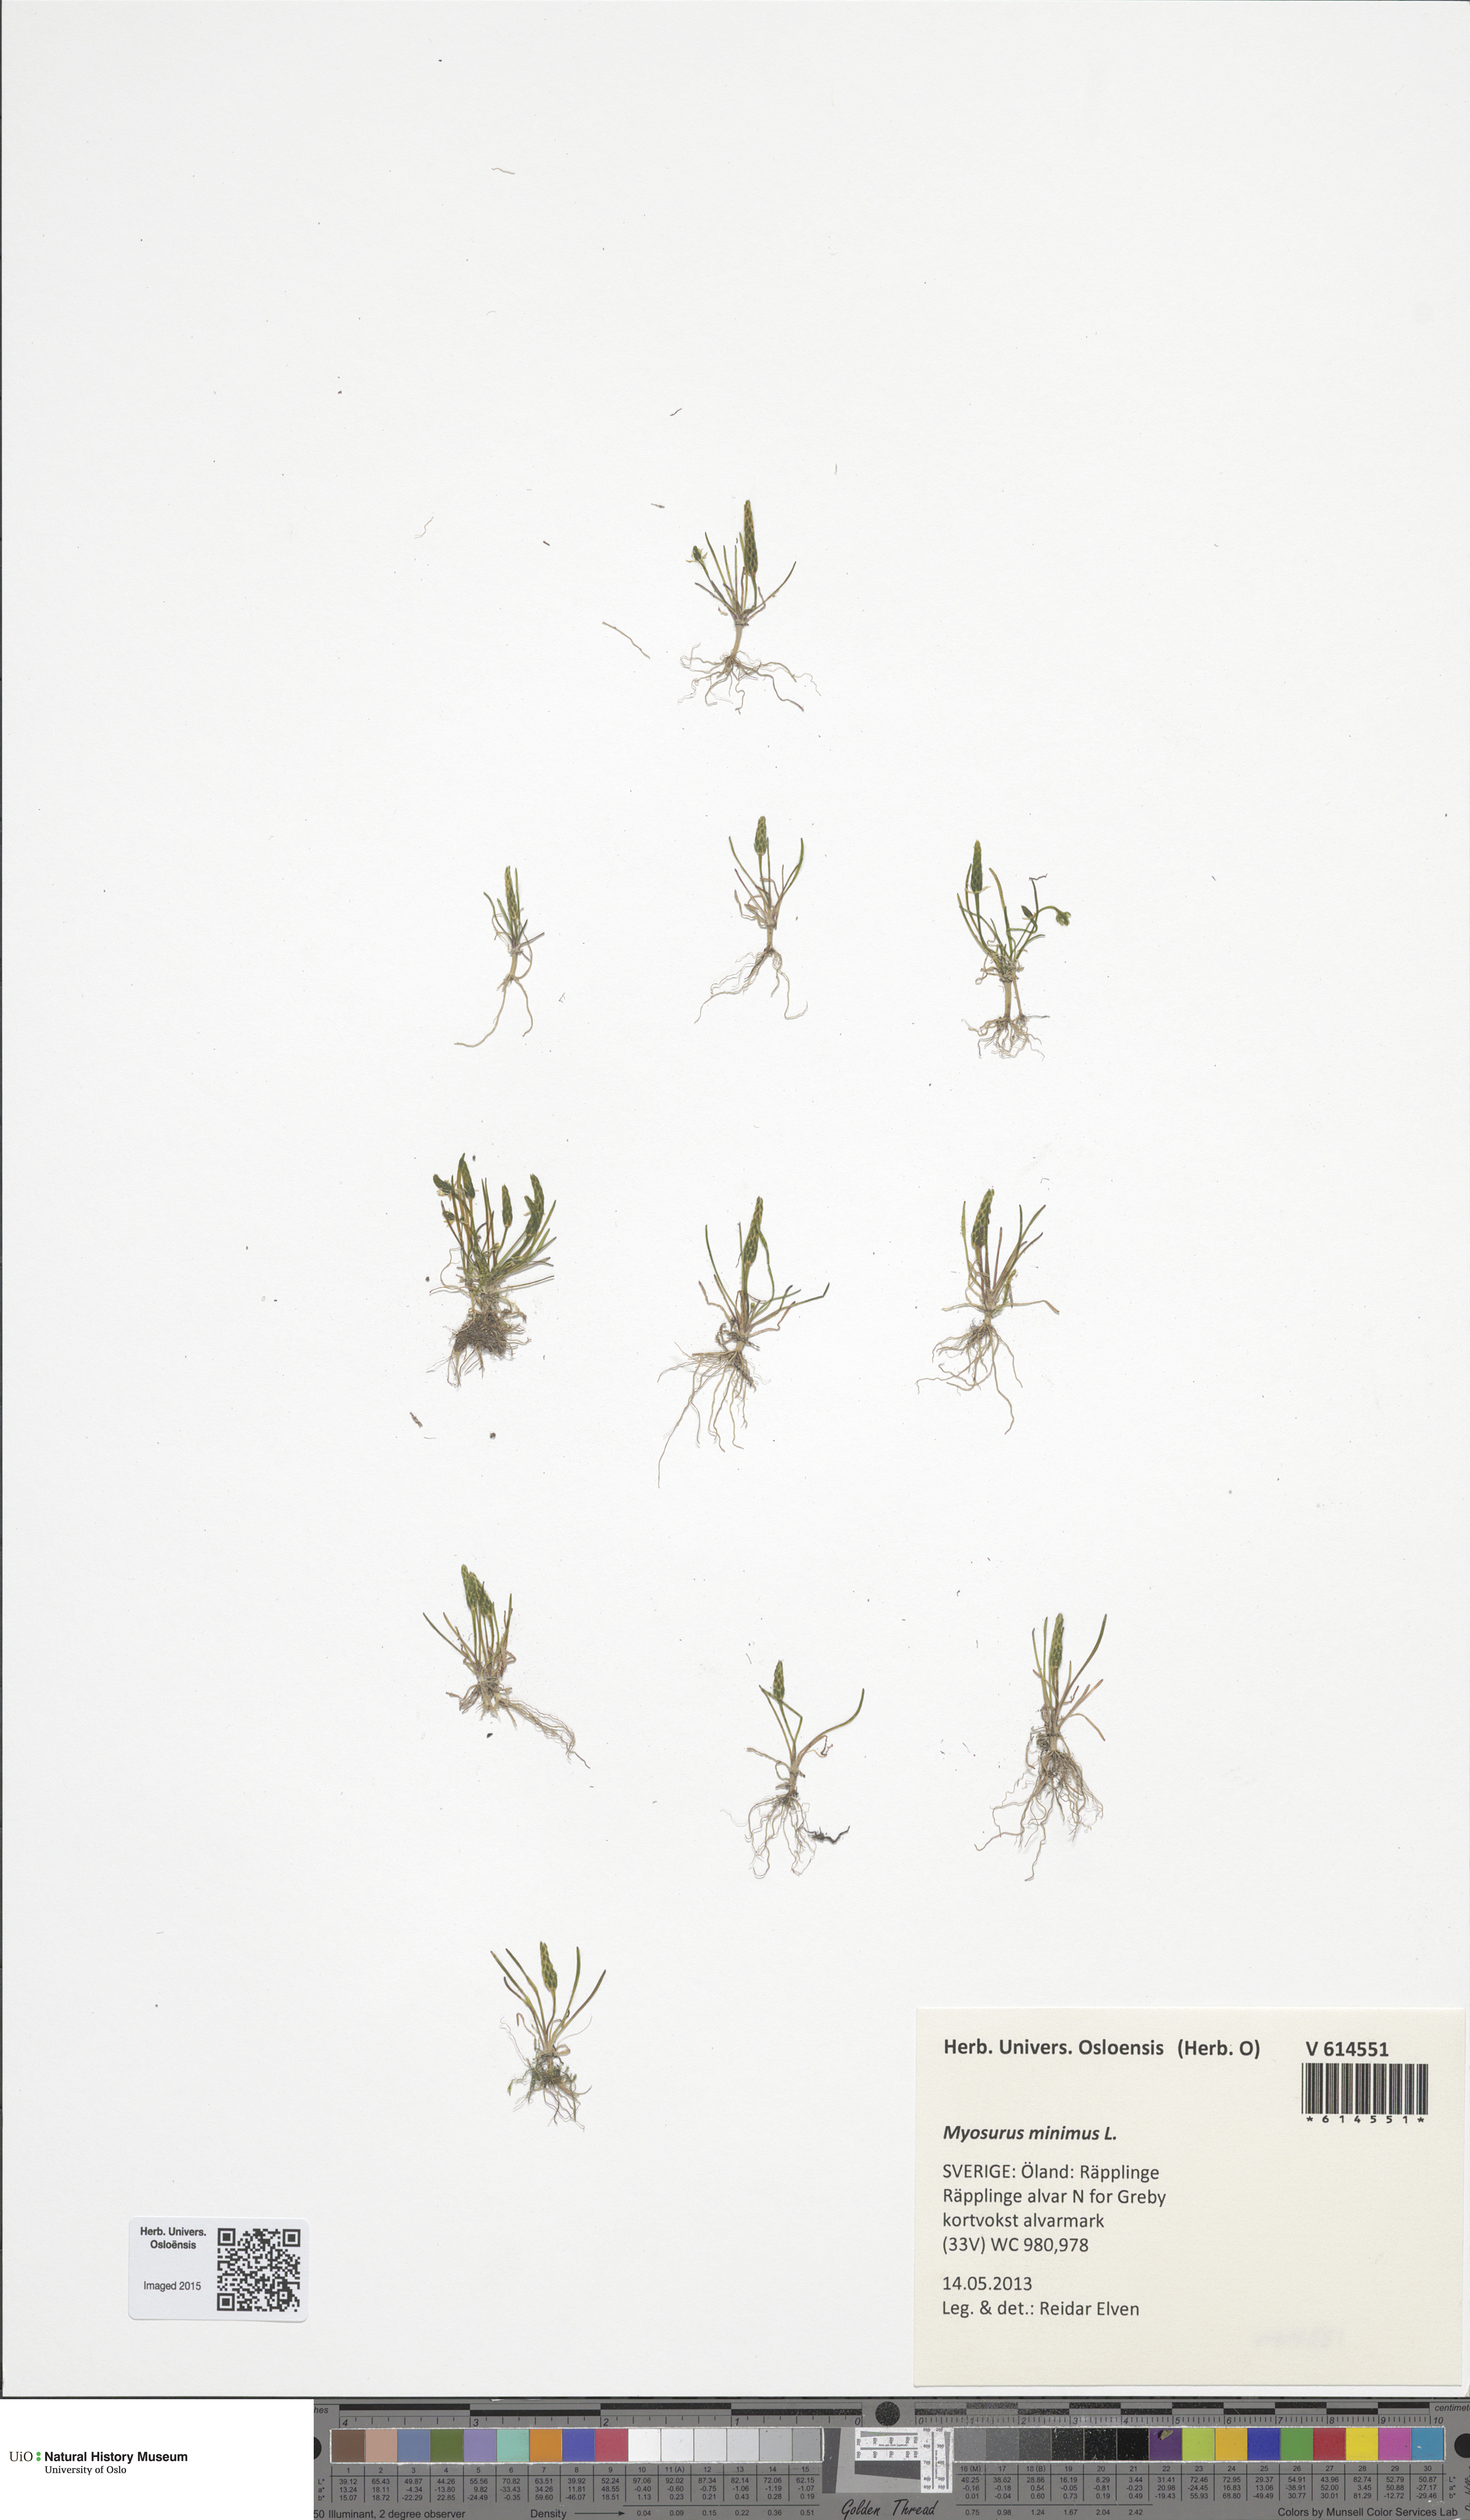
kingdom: Plantae
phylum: Tracheophyta
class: Magnoliopsida
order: Ranunculales
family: Ranunculaceae
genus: Myosurus
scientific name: Myosurus minimus
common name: Mousetail
